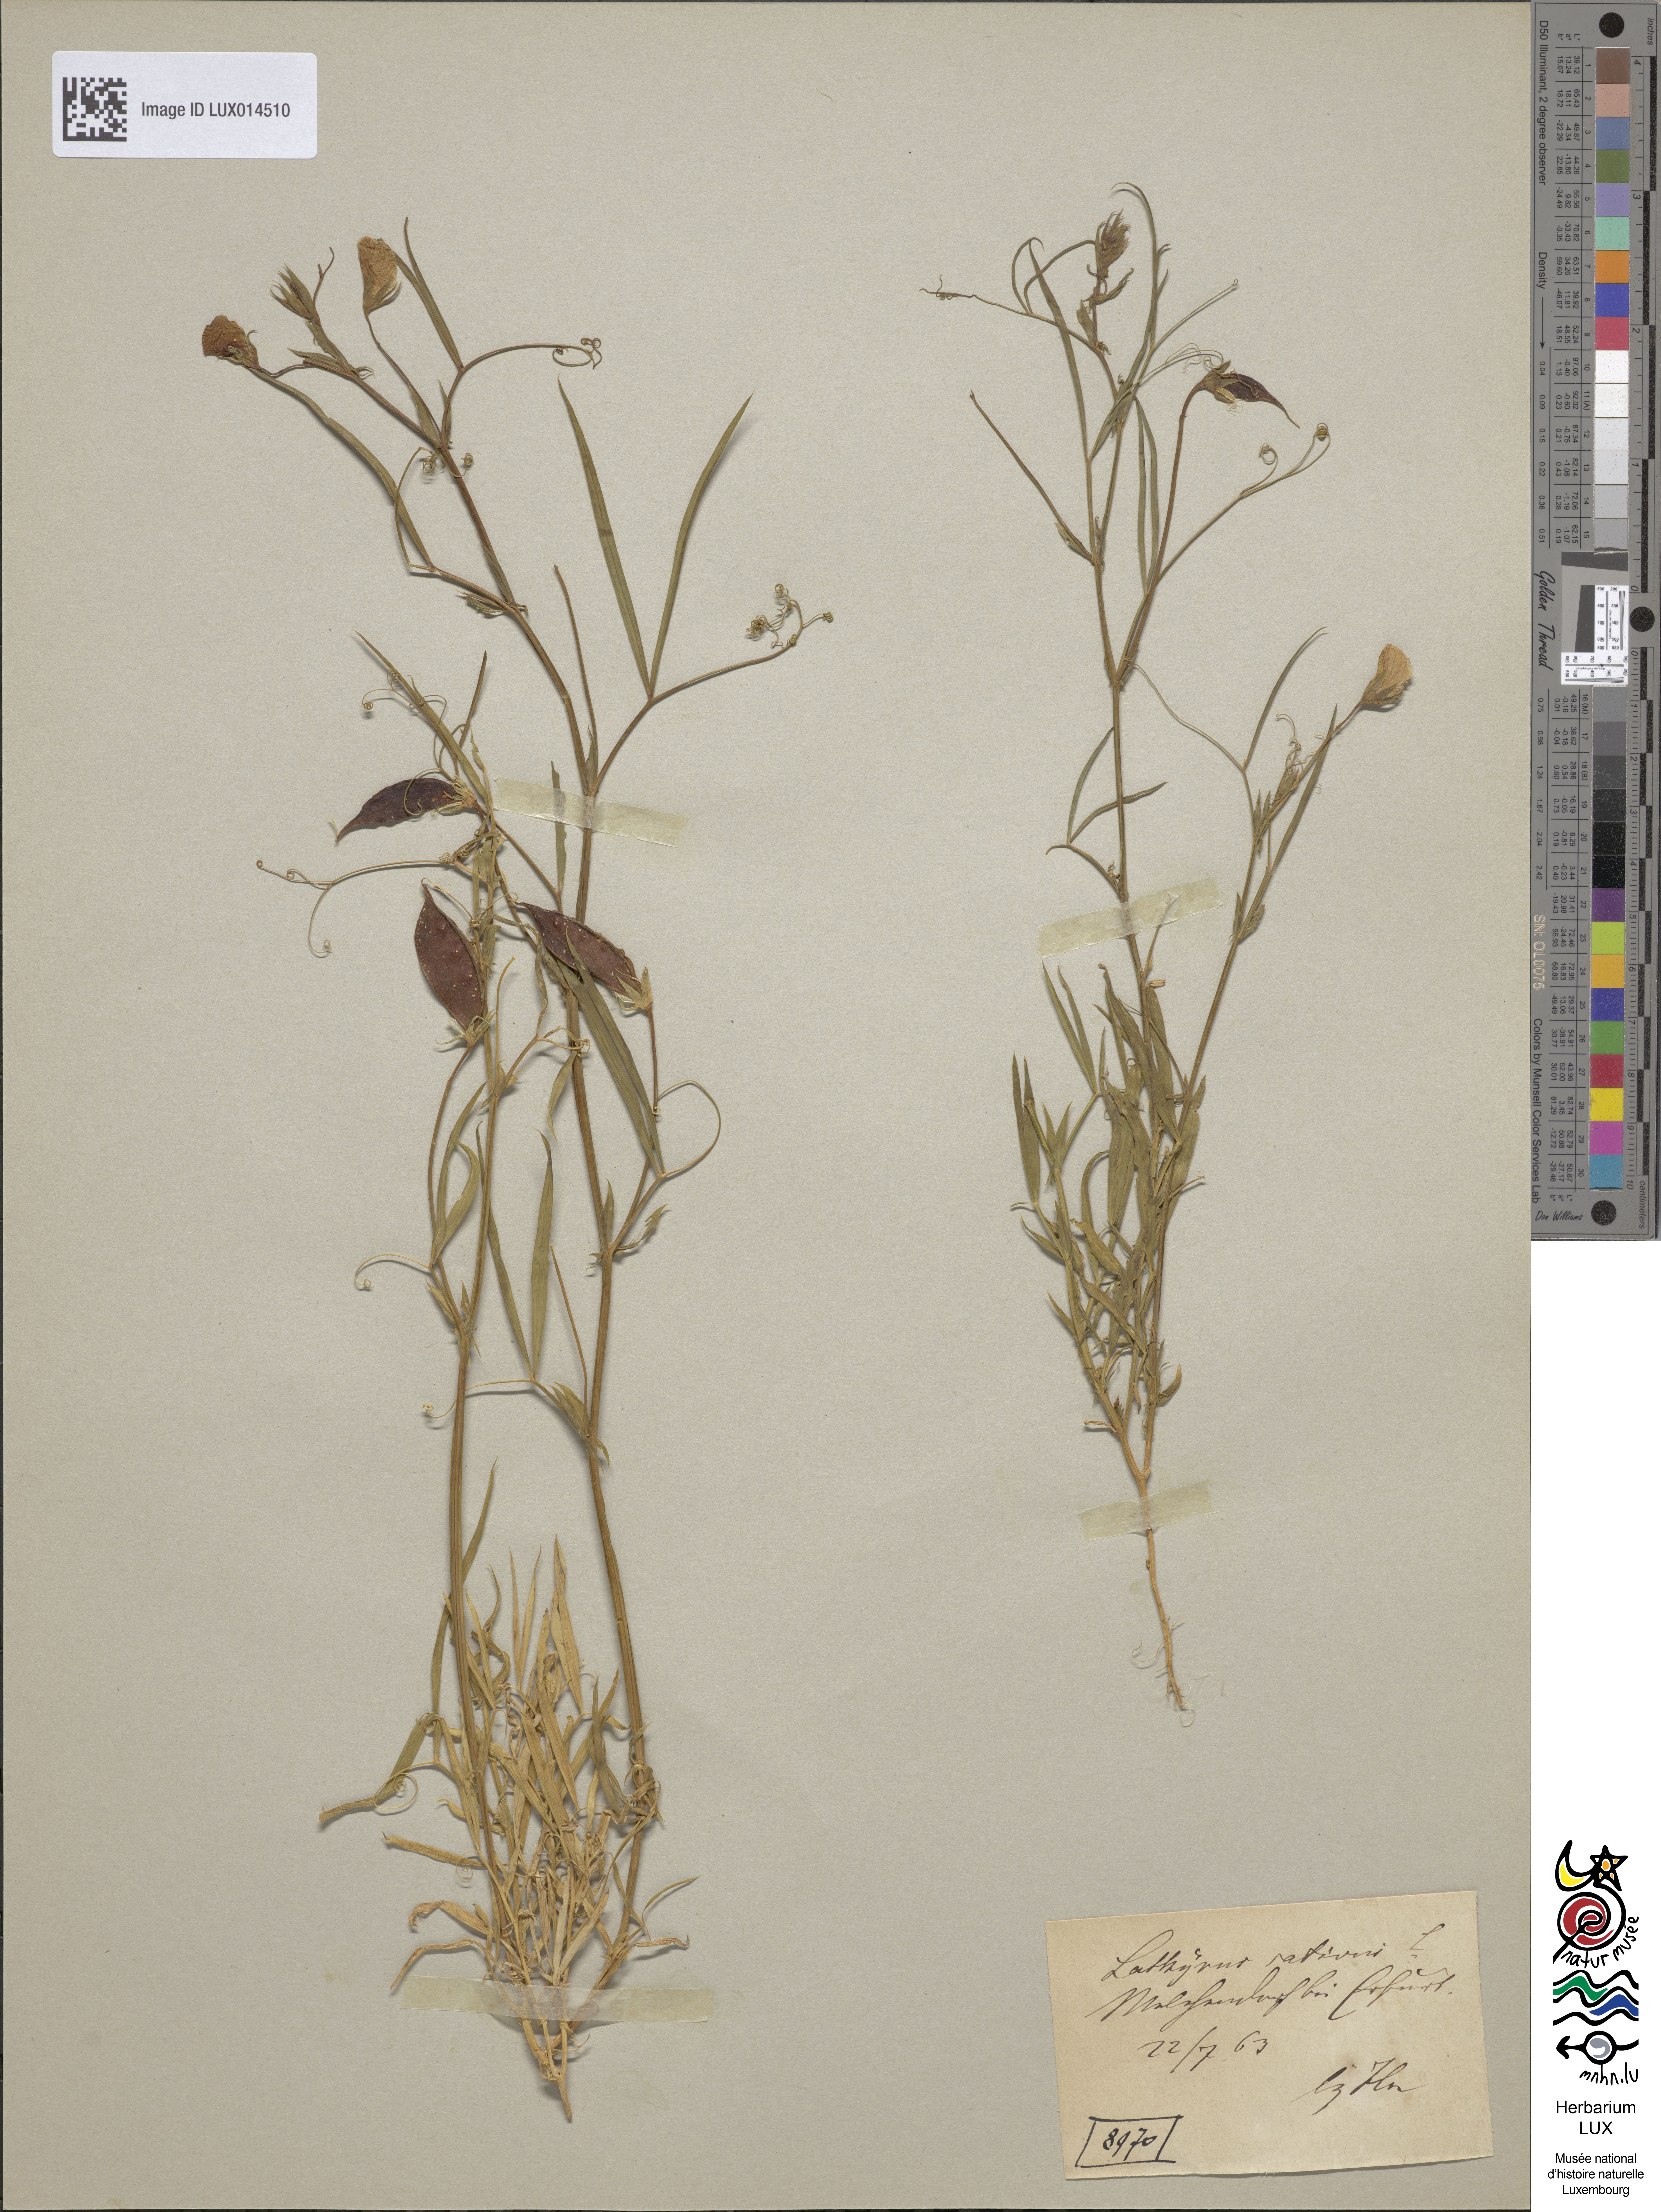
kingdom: Plantae
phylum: Tracheophyta
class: Magnoliopsida
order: Fabales
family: Fabaceae
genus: Lathyrus
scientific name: Lathyrus sativus
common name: Indian pea
